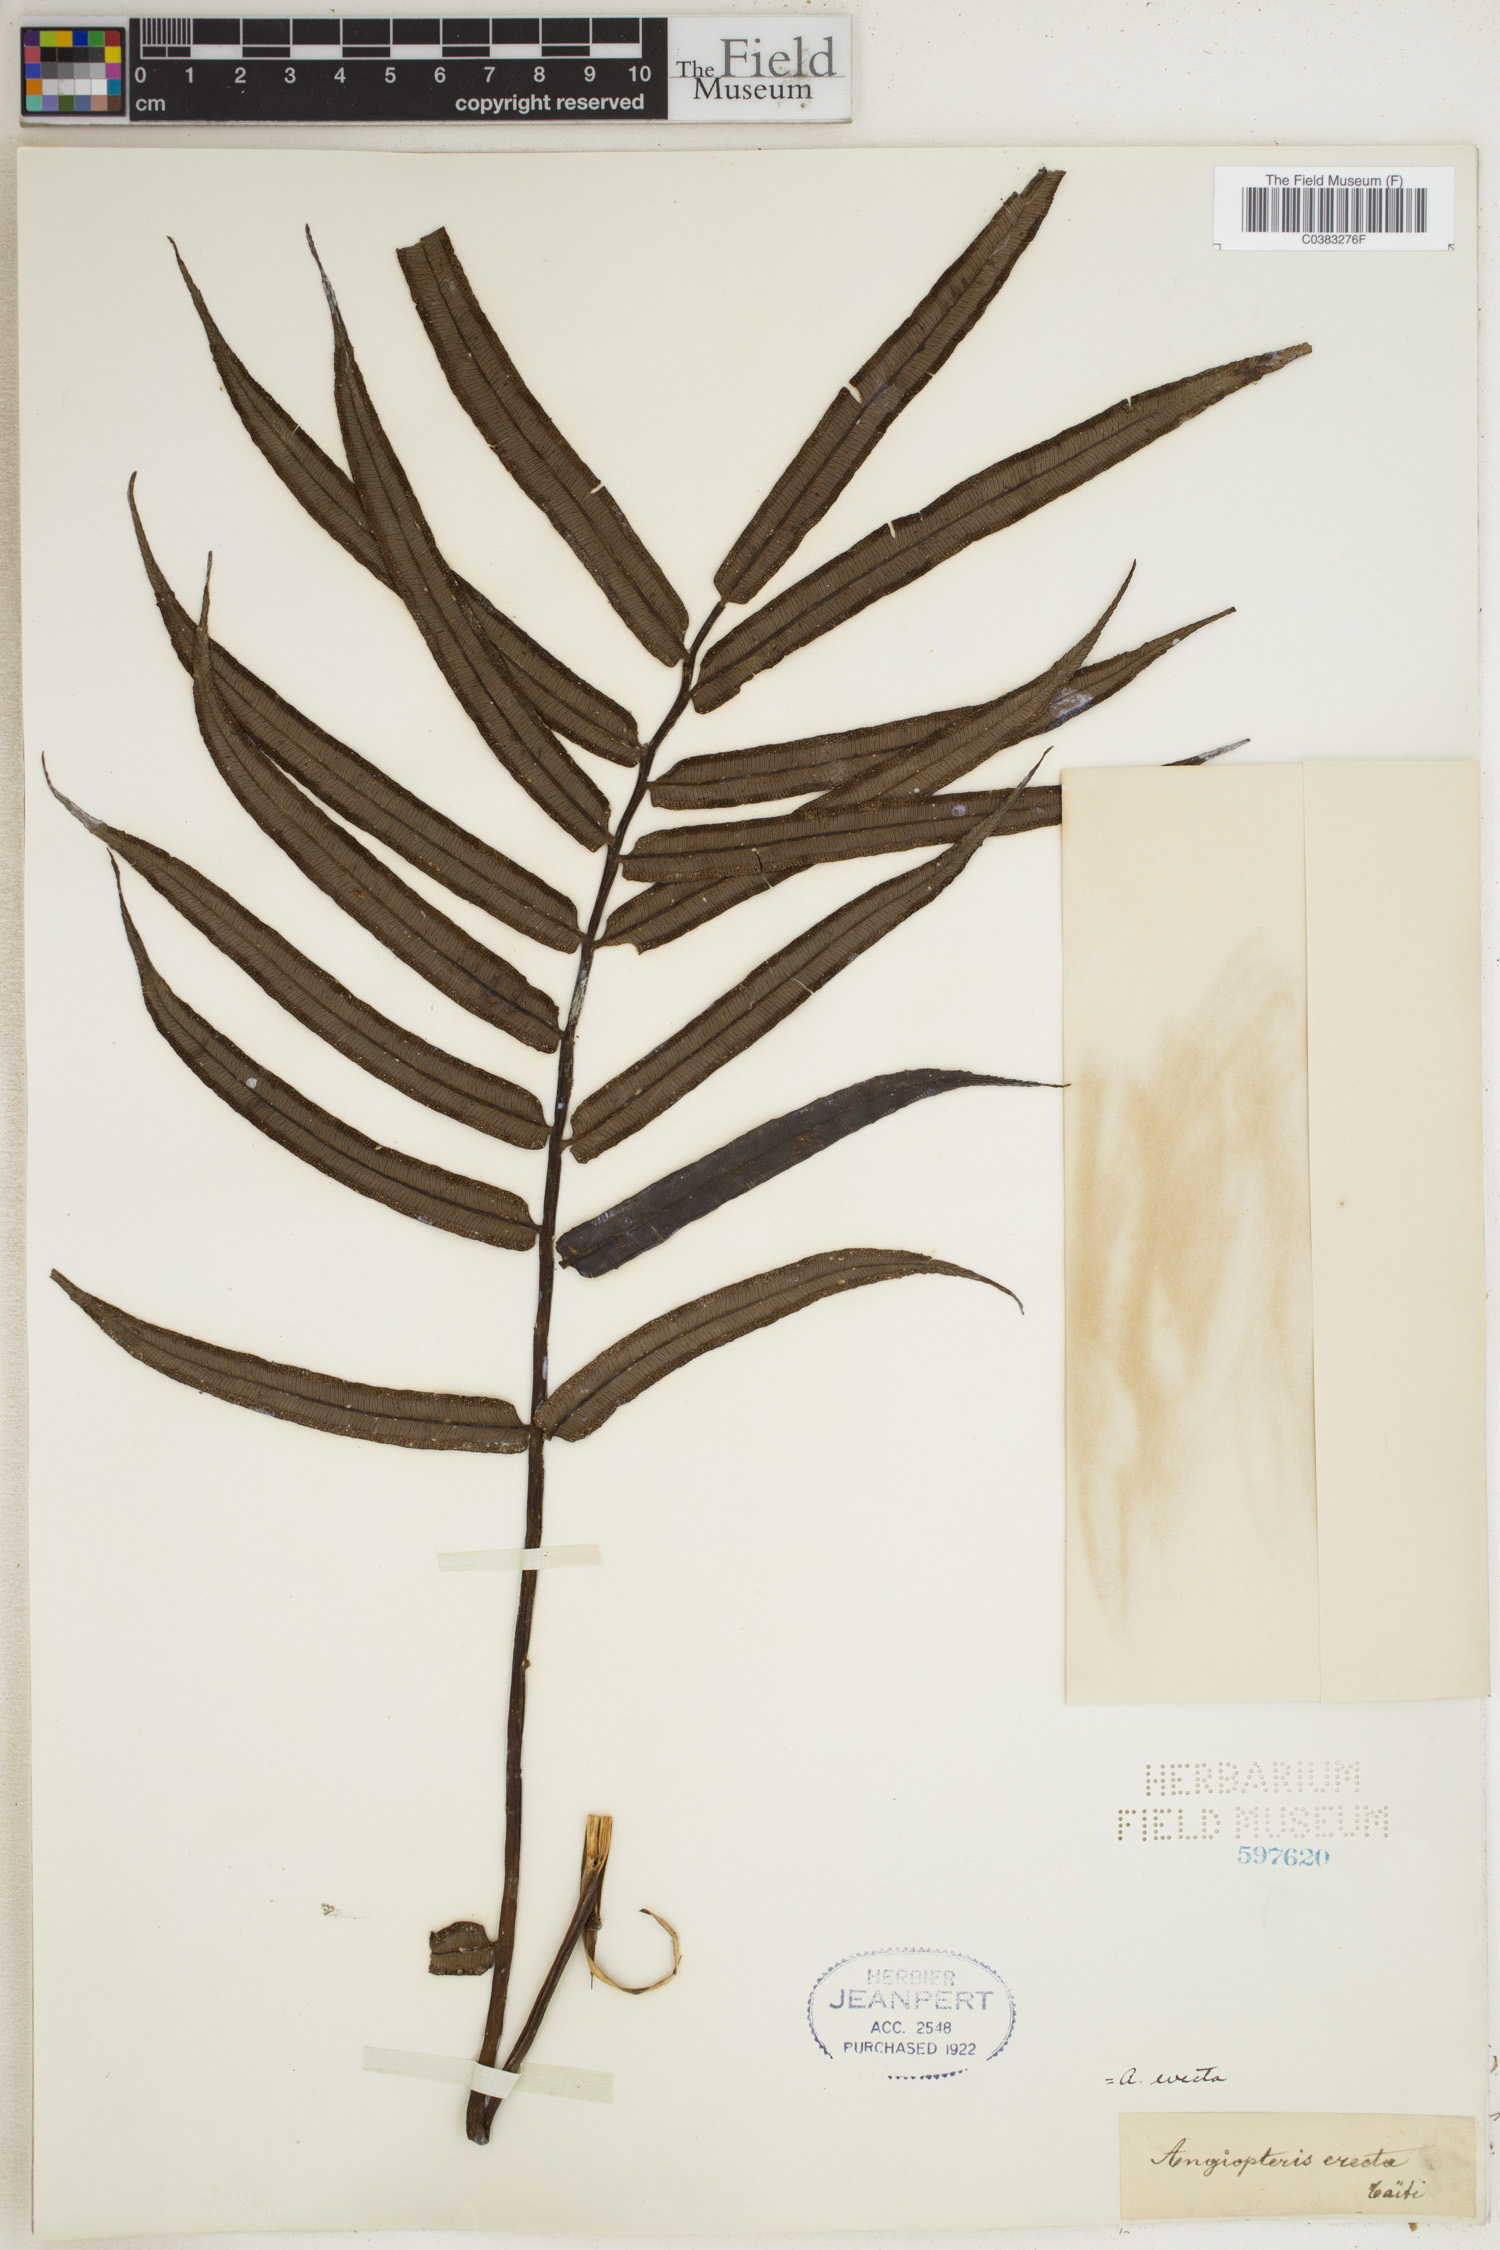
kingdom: Plantae
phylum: Tracheophyta
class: Polypodiopsida
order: Marattiales
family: Marattiaceae
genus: Angiopteris
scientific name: Angiopteris evecta
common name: Mule's-foot fern
